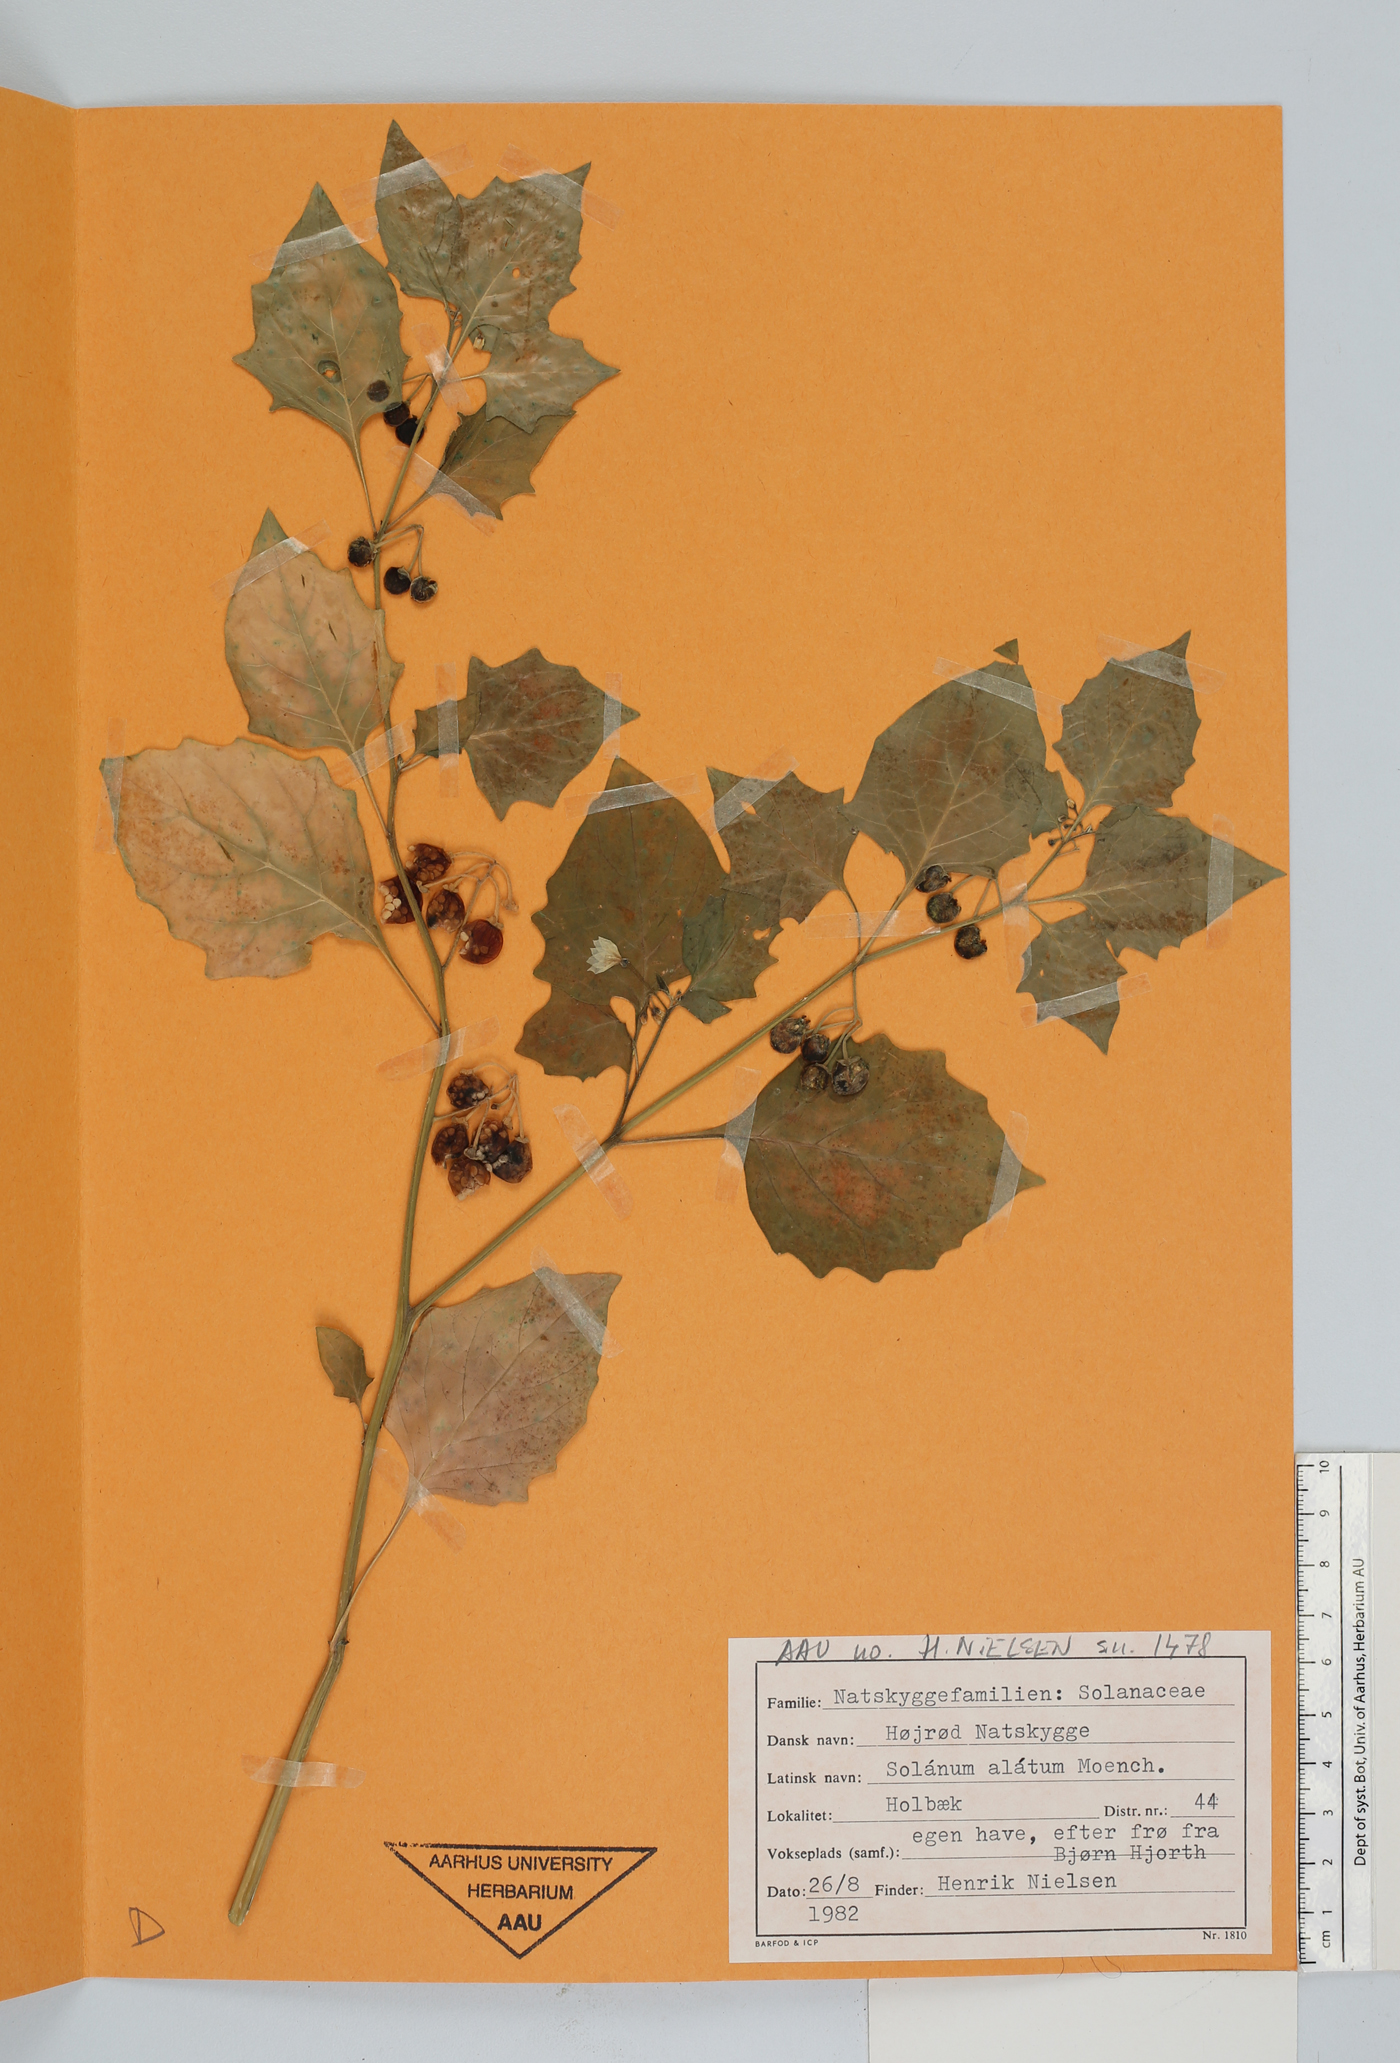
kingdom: Plantae
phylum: Tracheophyta
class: Magnoliopsida
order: Solanales
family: Solanaceae
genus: Solanum
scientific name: Solanum hoehnei
